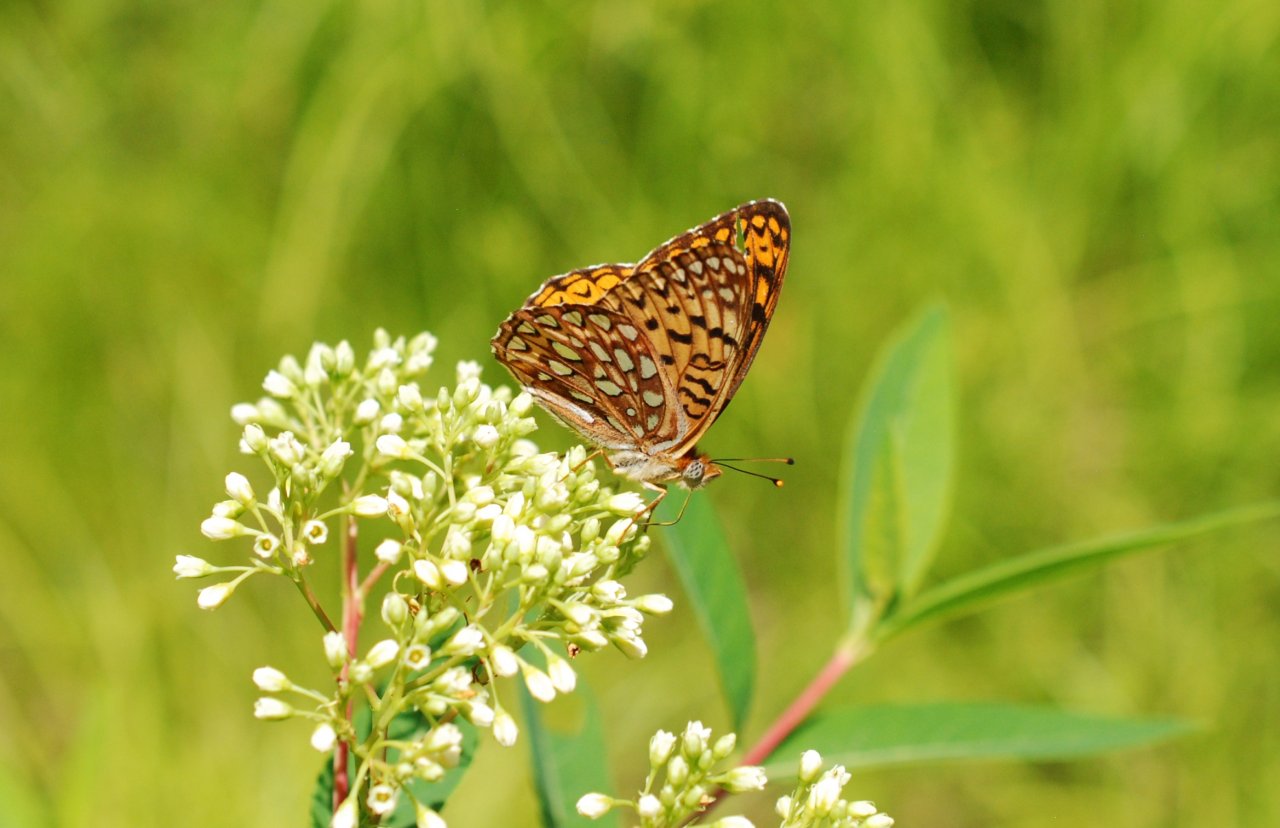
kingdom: Animalia
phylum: Arthropoda
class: Insecta
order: Lepidoptera
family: Nymphalidae
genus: Speyeria
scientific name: Speyeria atlantis
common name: Atlantis Fritillary
